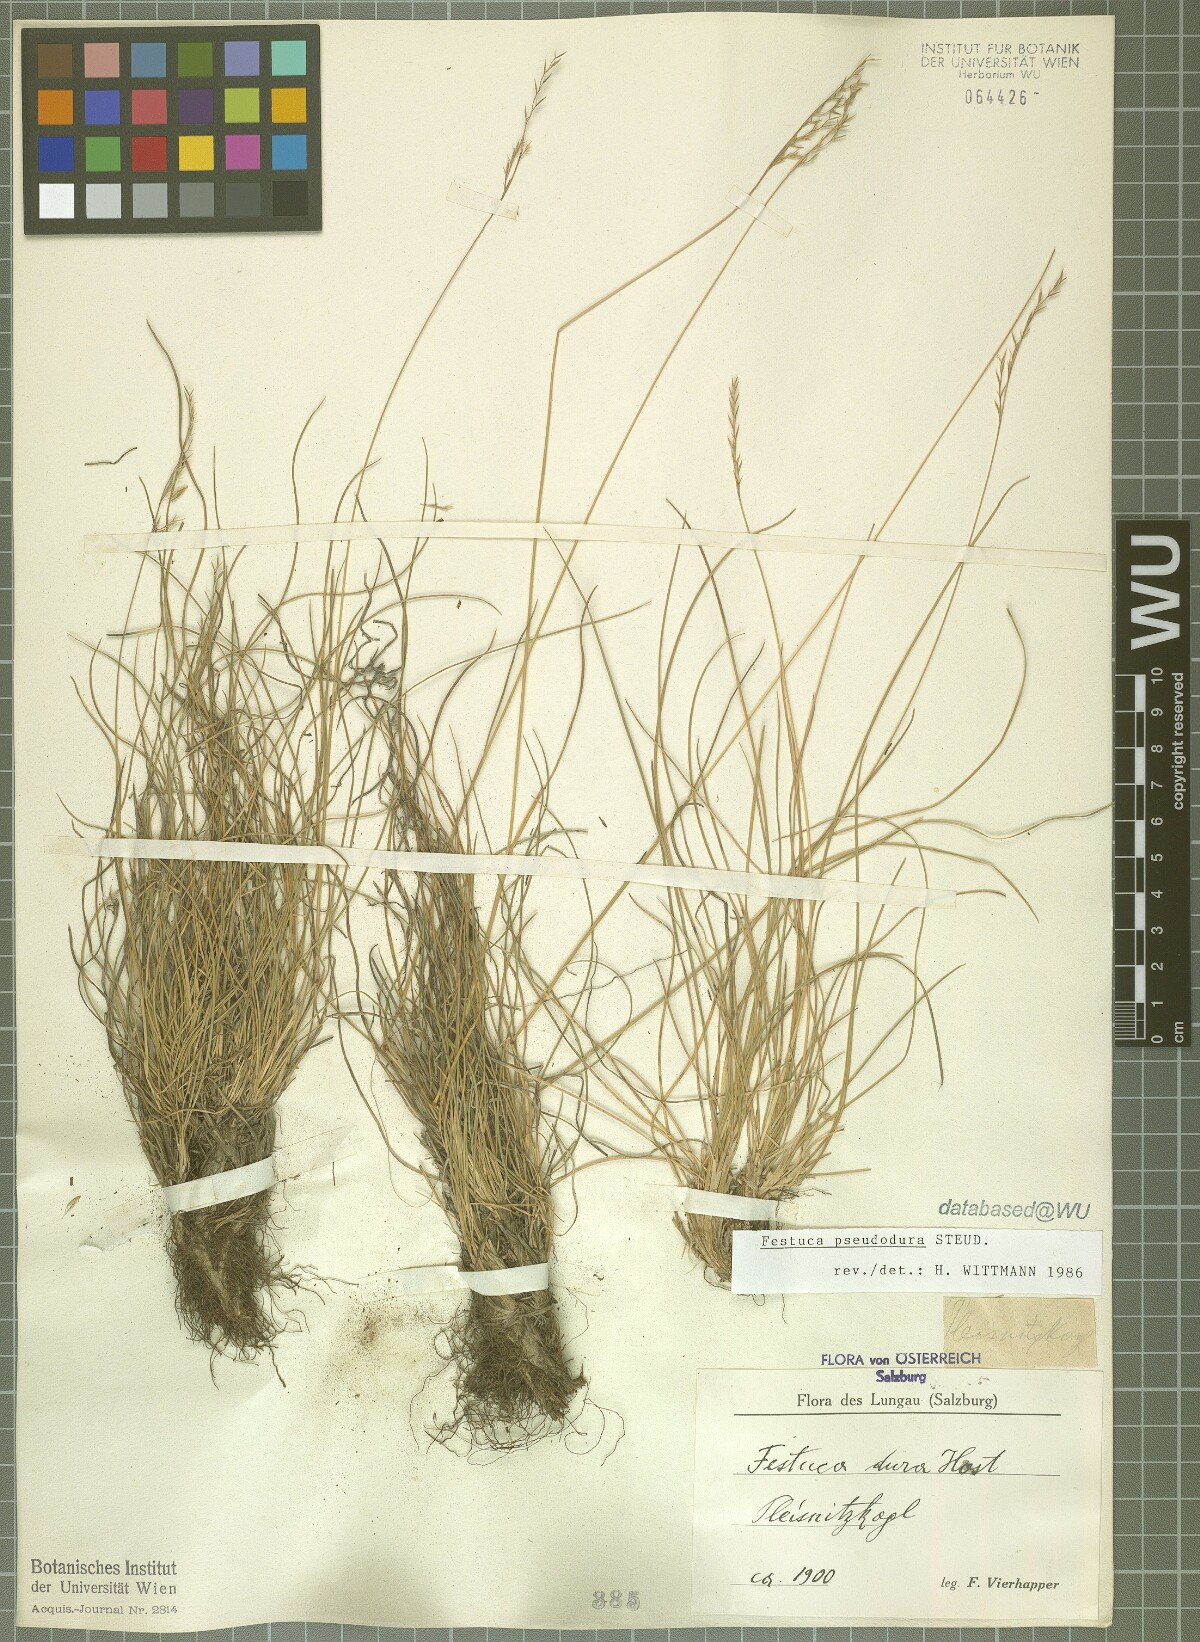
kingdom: Plantae
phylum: Tracheophyta
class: Liliopsida
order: Poales
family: Poaceae
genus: Festuca
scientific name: Festuca pseudodura
